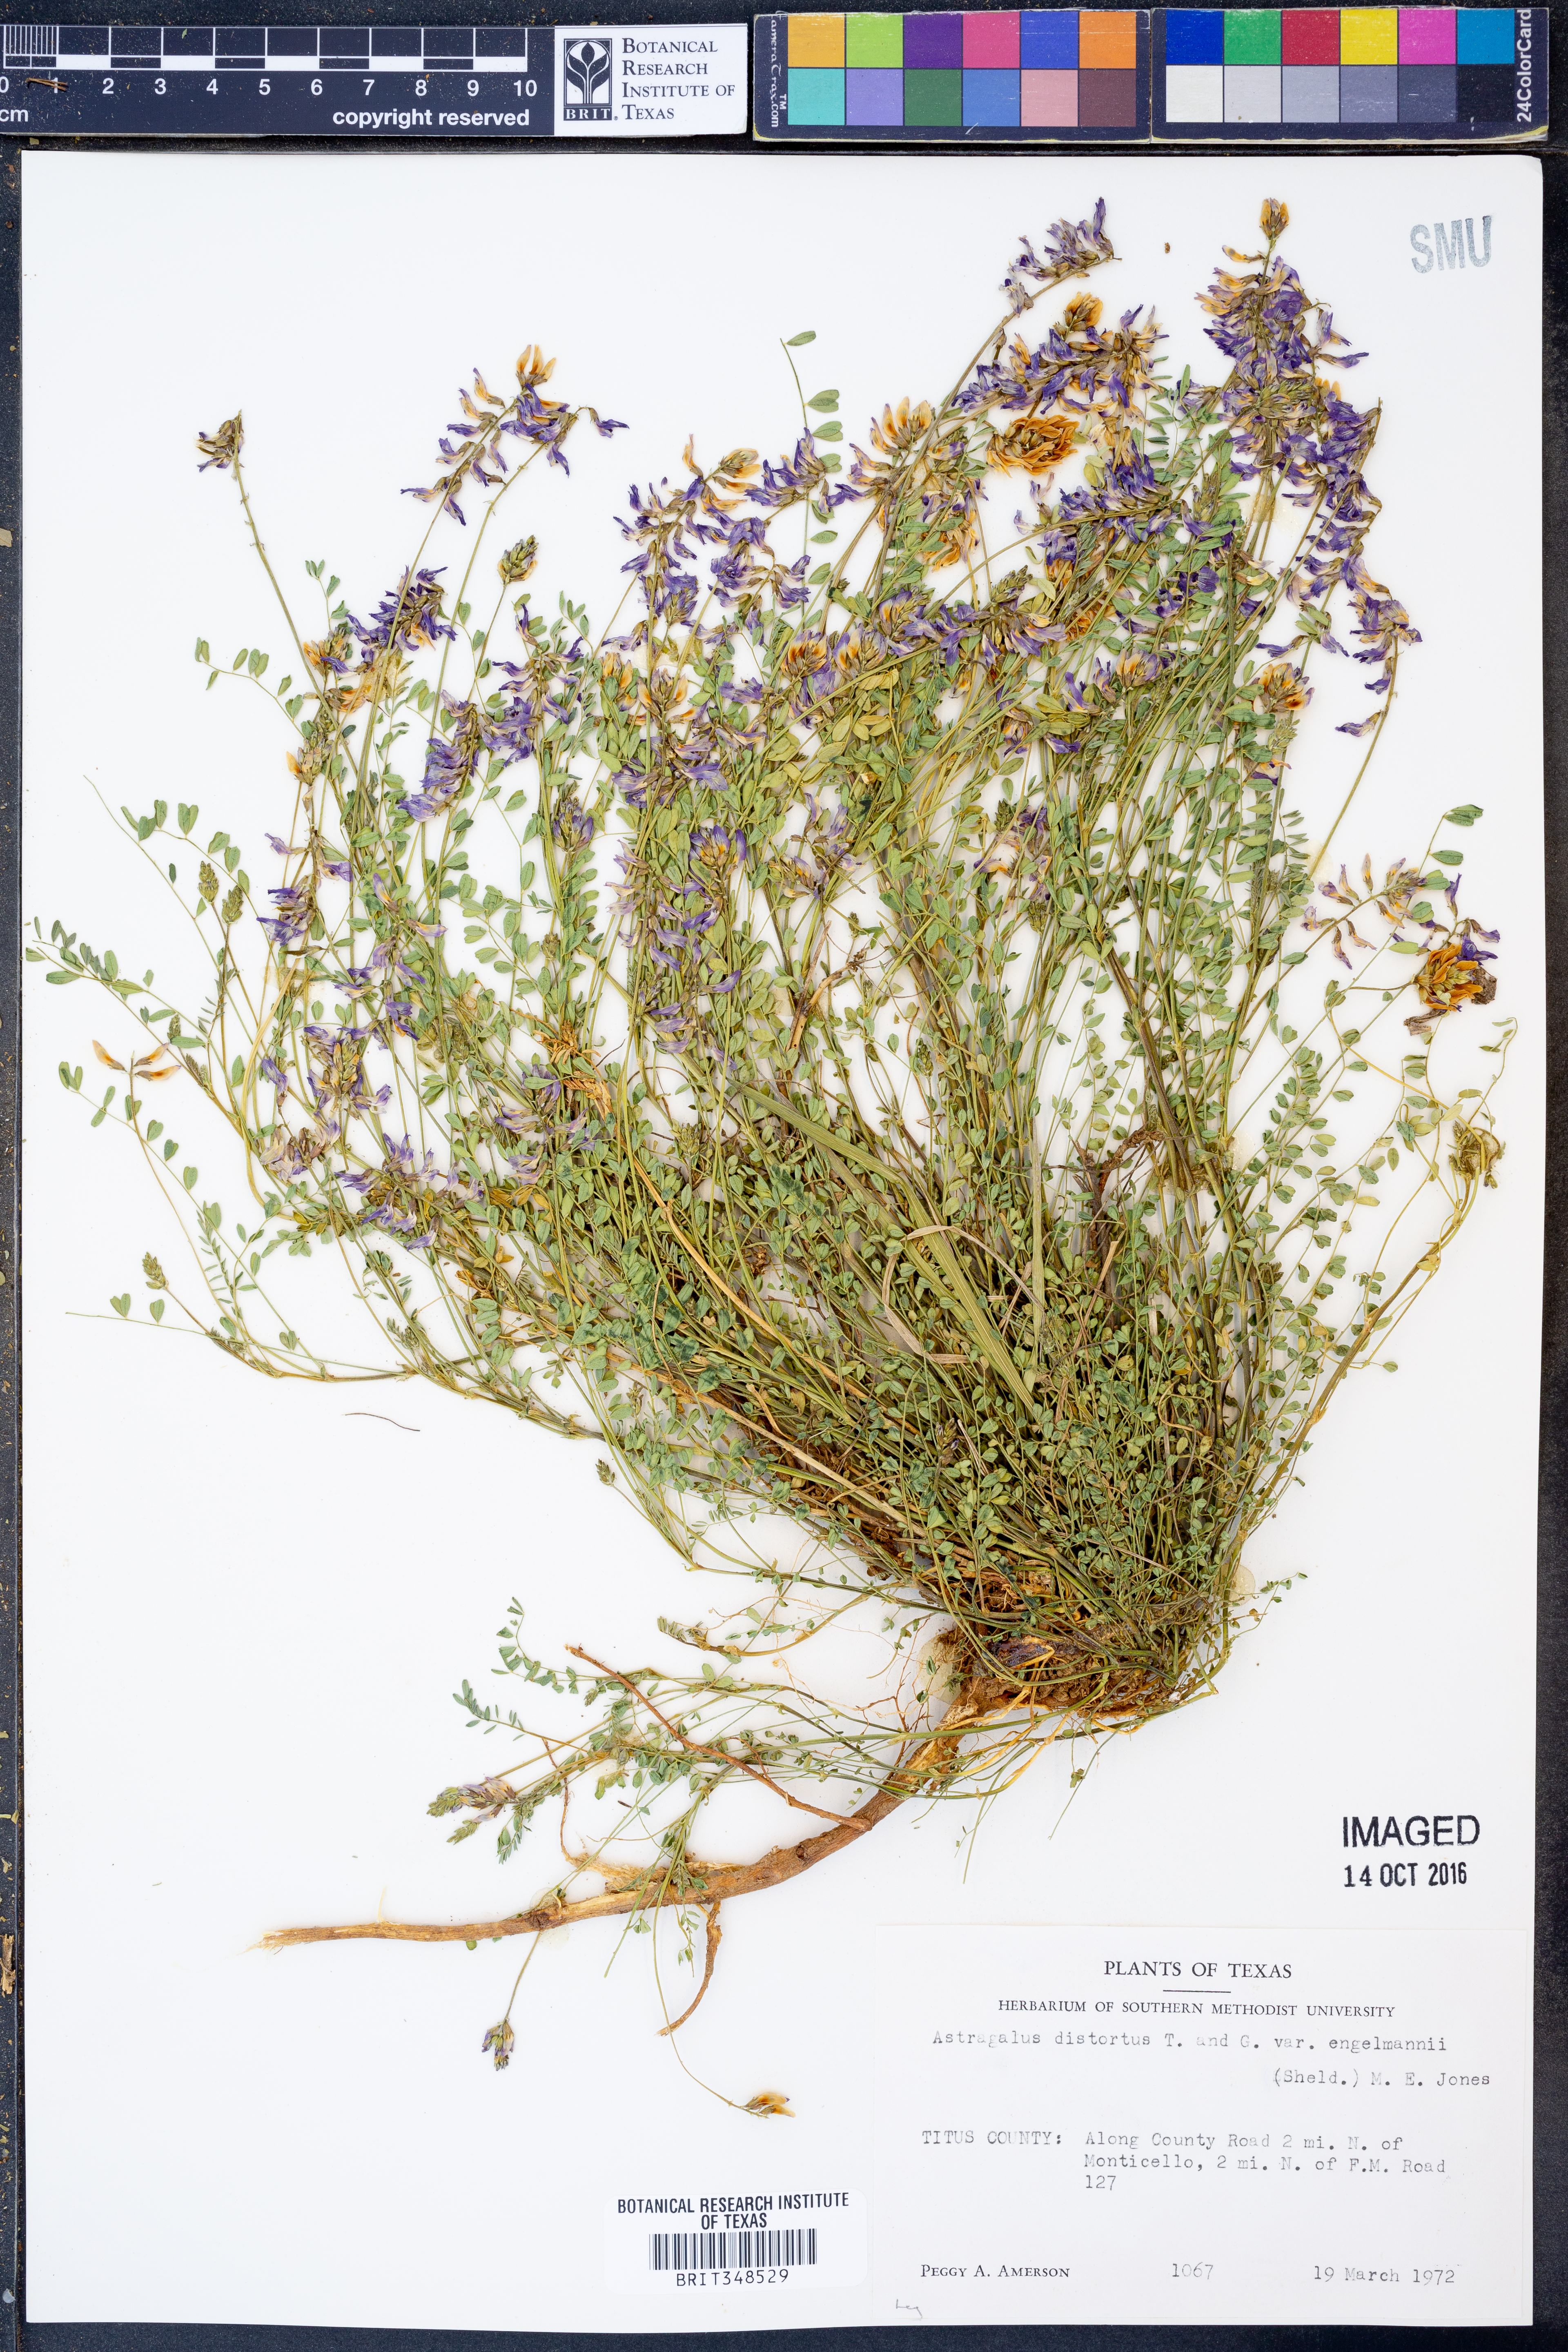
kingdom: Plantae
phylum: Tracheophyta
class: Magnoliopsida
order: Fabales
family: Fabaceae
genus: Astragalus
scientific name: Astragalus distortus
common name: Ozark milk-vetch
